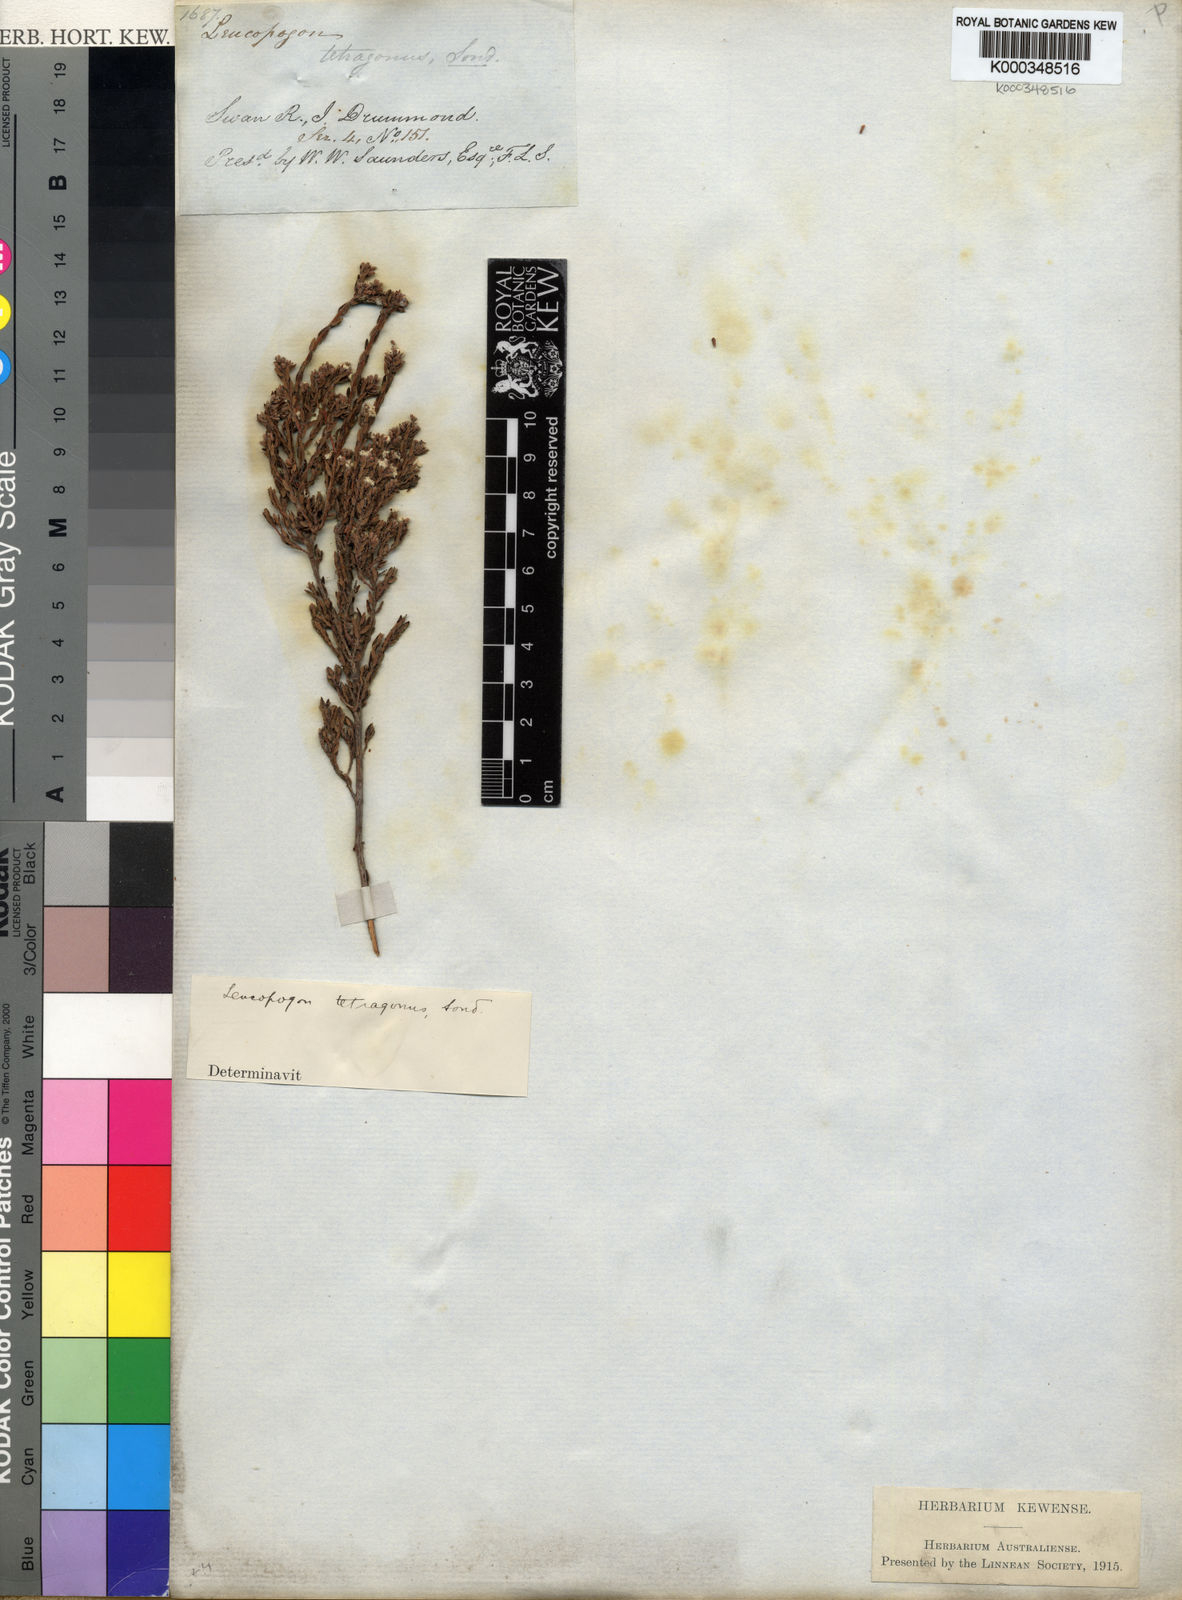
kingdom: Plantae
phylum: Tracheophyta
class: Magnoliopsida
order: Ericales
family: Ericaceae
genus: Leucopogon
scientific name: Leucopogon tetragonus
